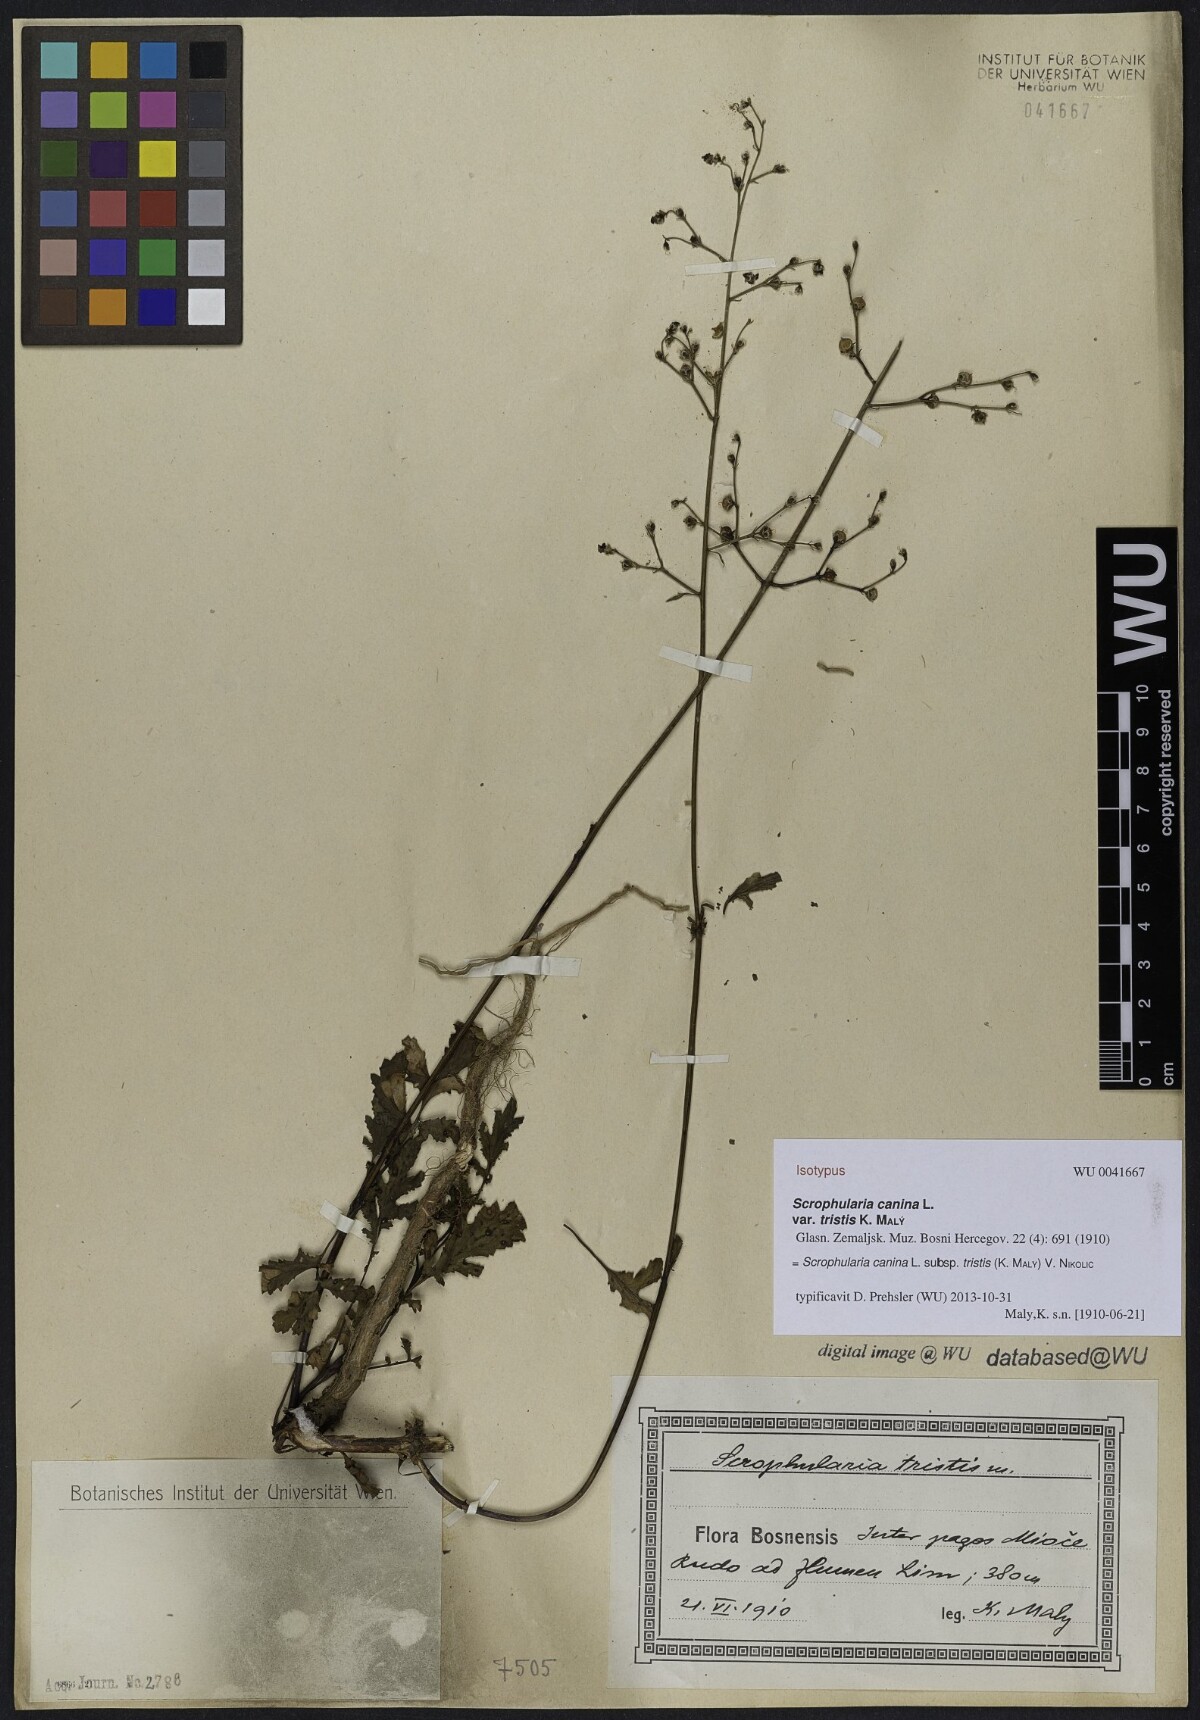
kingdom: Plantae
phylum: Tracheophyta
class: Magnoliopsida
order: Lamiales
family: Scrophulariaceae
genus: Scrophularia
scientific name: Scrophularia canina
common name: French figwort
